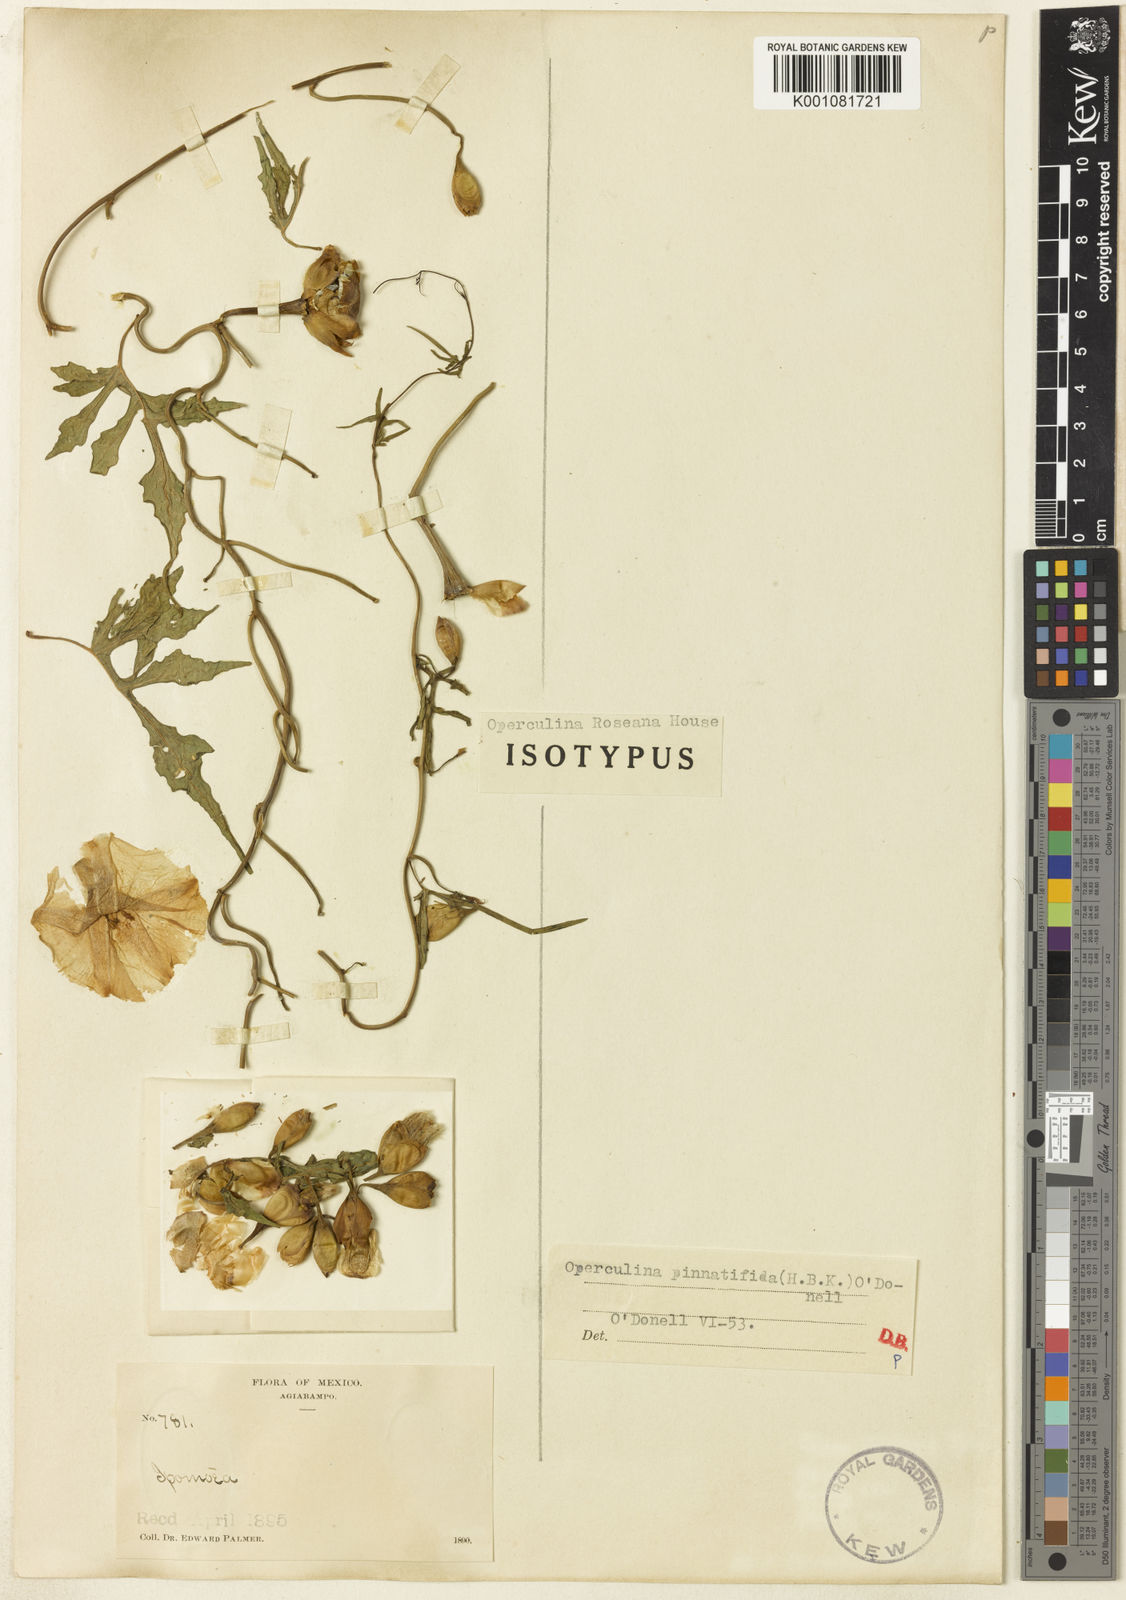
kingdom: Plantae
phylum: Tracheophyta
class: Magnoliopsida
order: Solanales
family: Convolvulaceae
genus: Operculina
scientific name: Operculina pinnatifida
